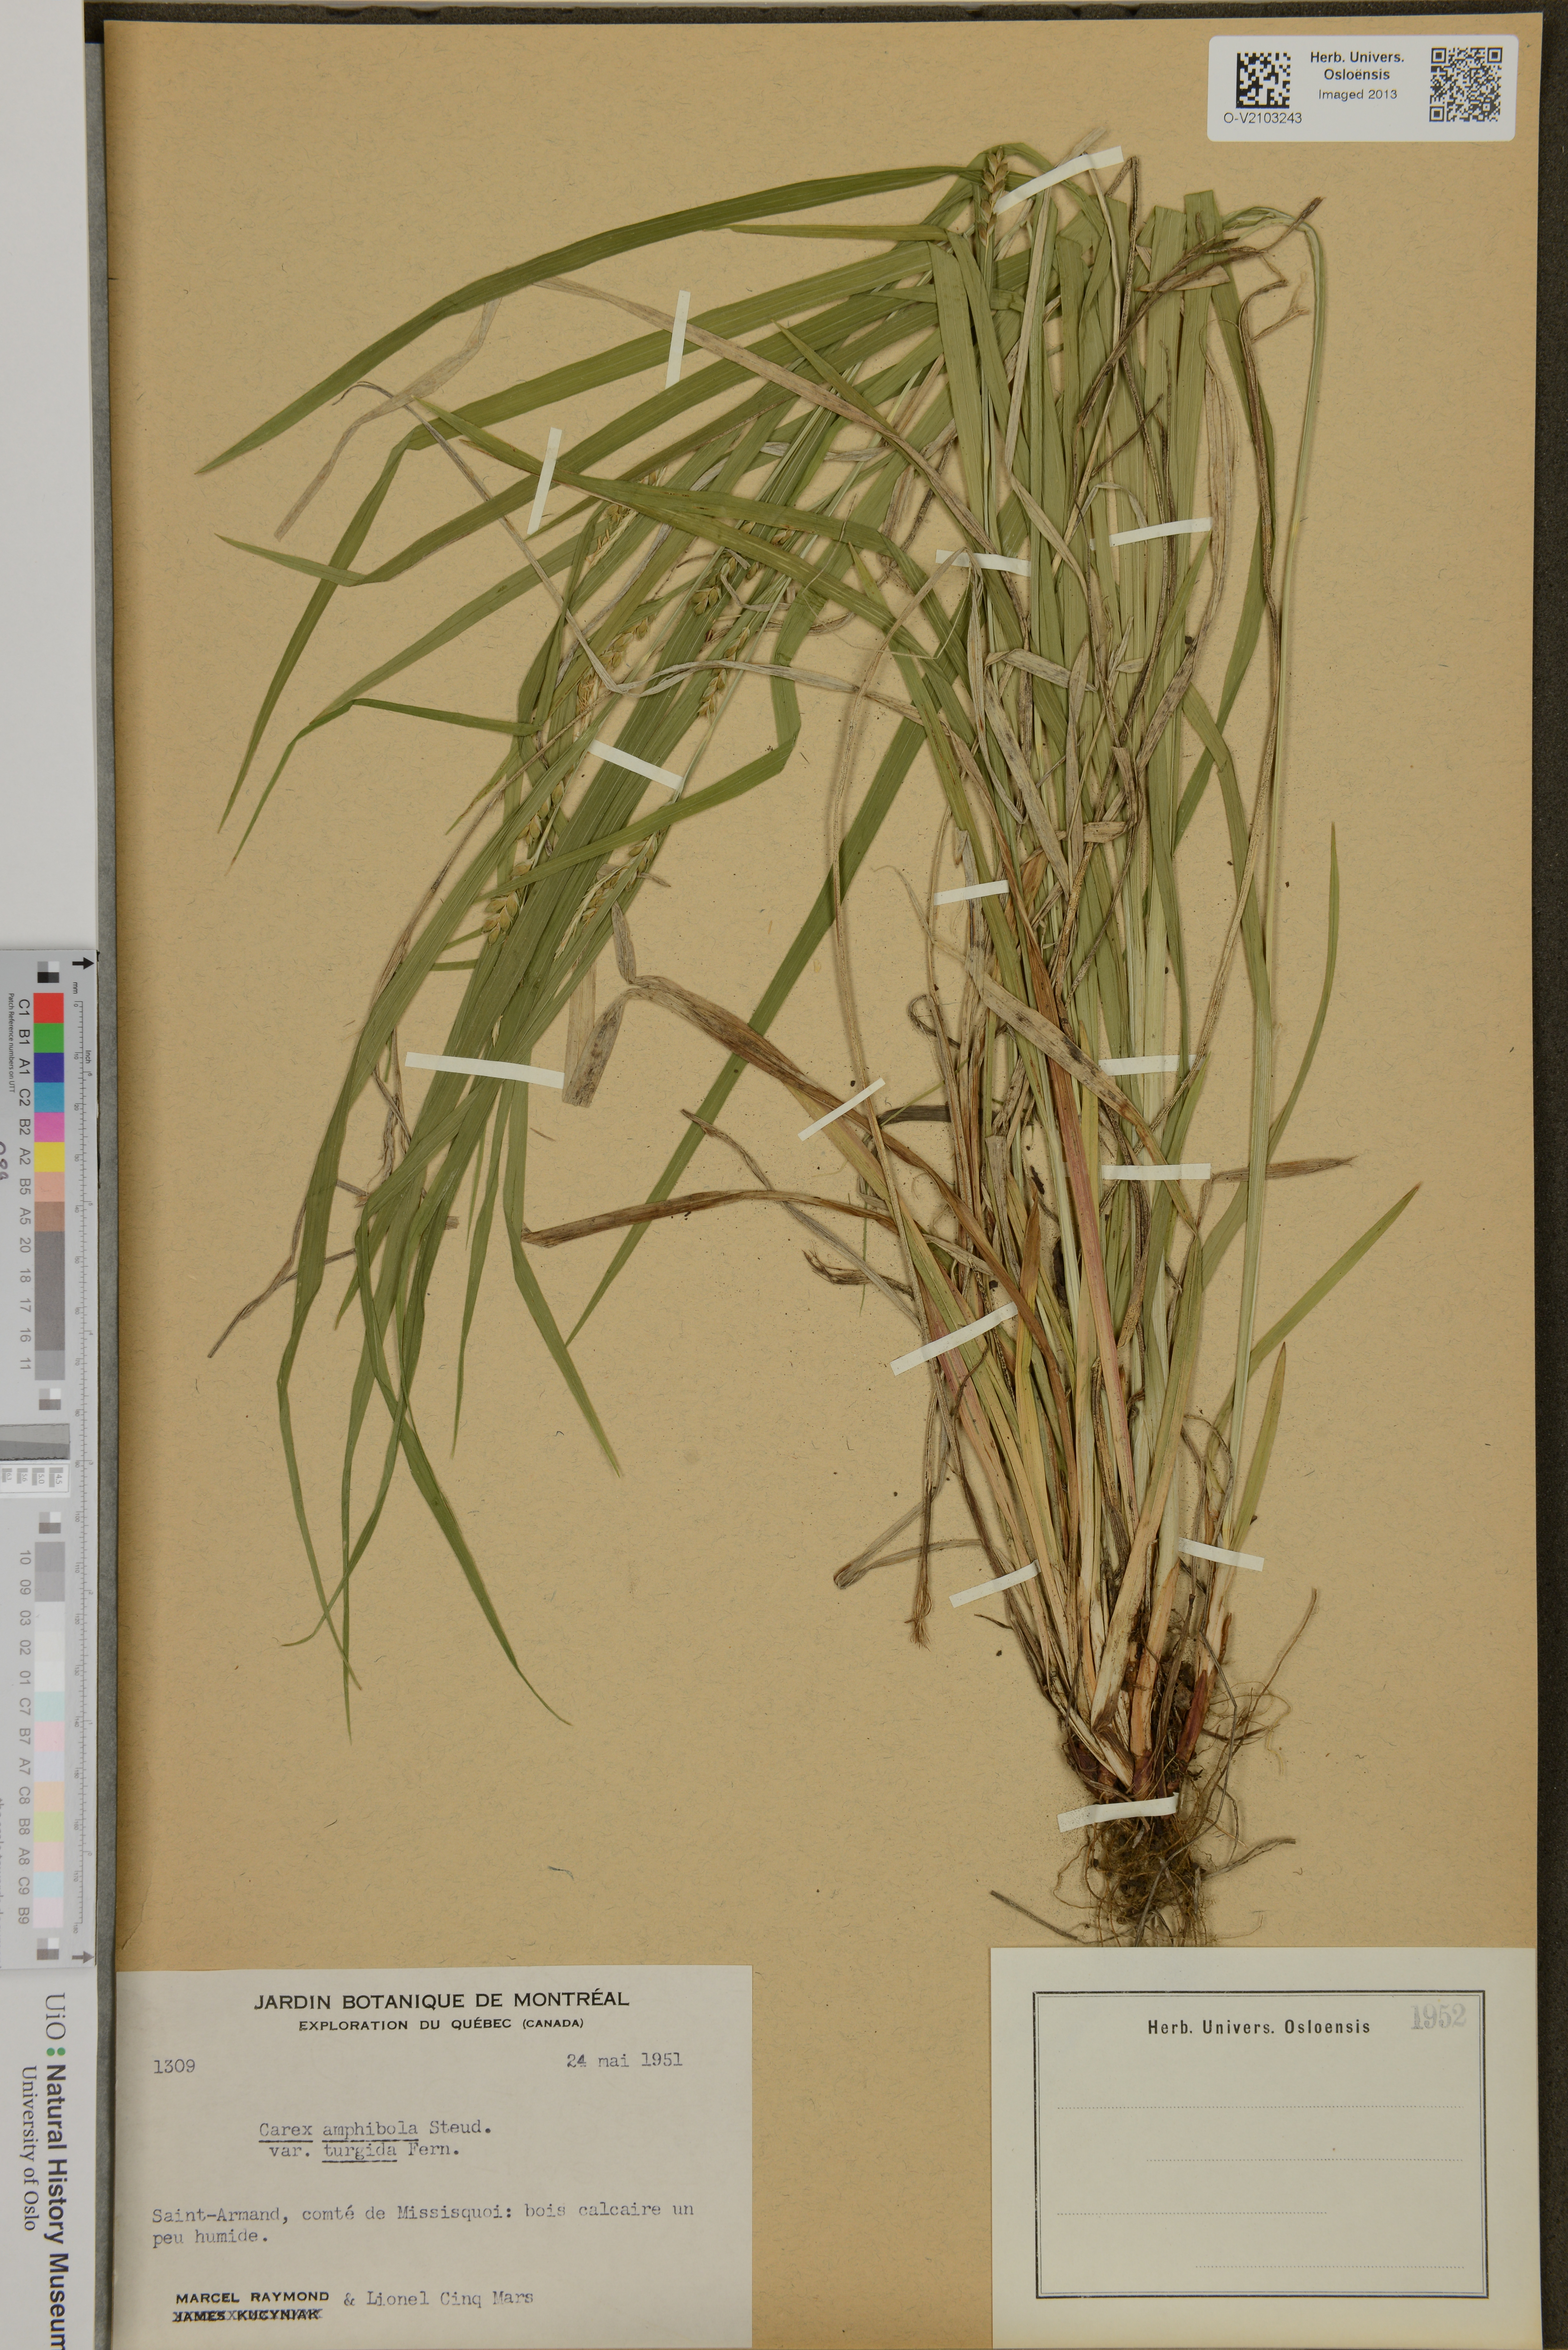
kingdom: Plantae
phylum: Tracheophyta
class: Liliopsida
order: Poales
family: Cyperaceae
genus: Carex
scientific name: Carex amplifolia
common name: Ample-leaved sedge
